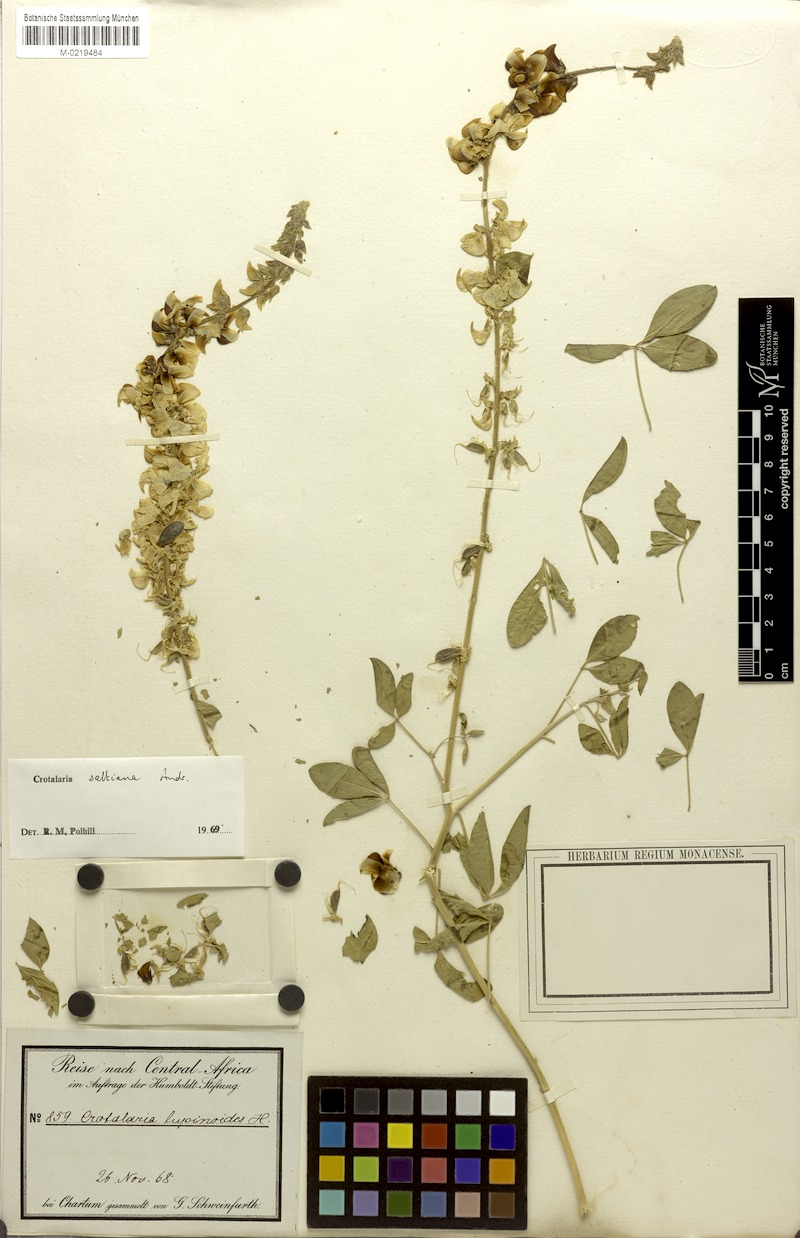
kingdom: Plantae
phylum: Tracheophyta
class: Magnoliopsida
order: Fabales
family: Fabaceae
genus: Crotalaria
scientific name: Crotalaria saltiana
